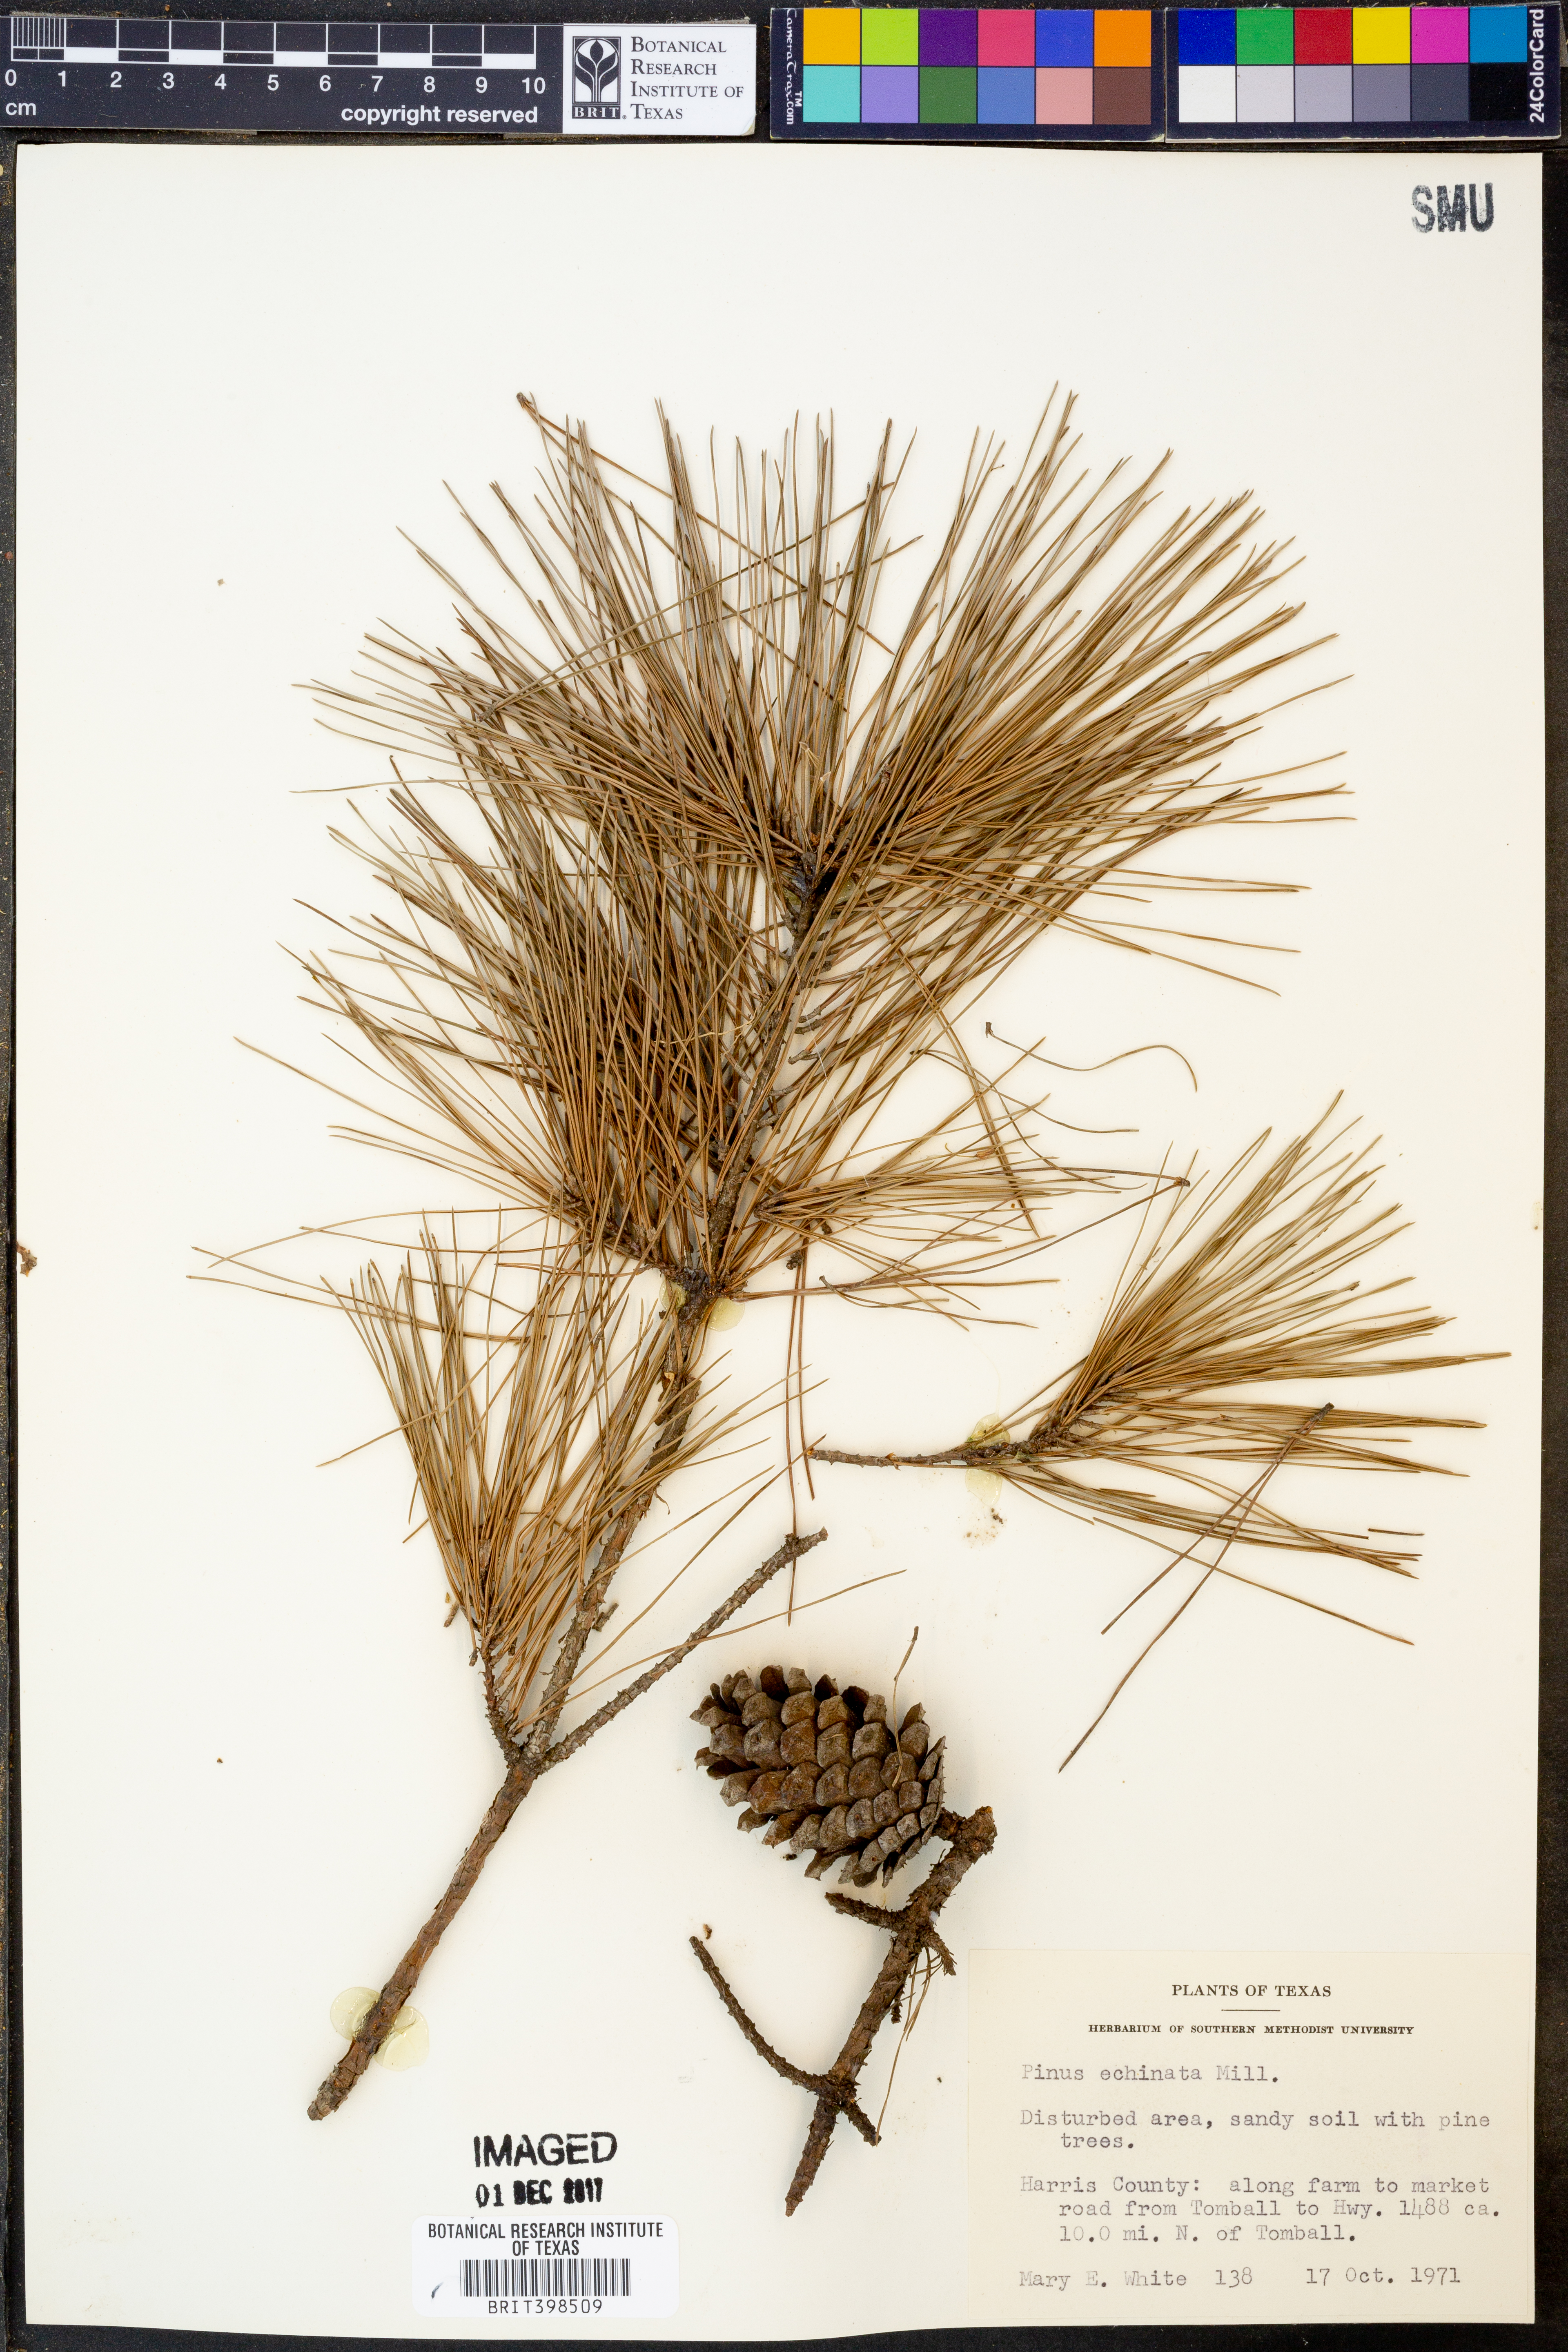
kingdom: Plantae
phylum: Tracheophyta
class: Pinopsida
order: Pinales
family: Pinaceae
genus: Pinus
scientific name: Pinus echinata
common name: Shortleaf pine
